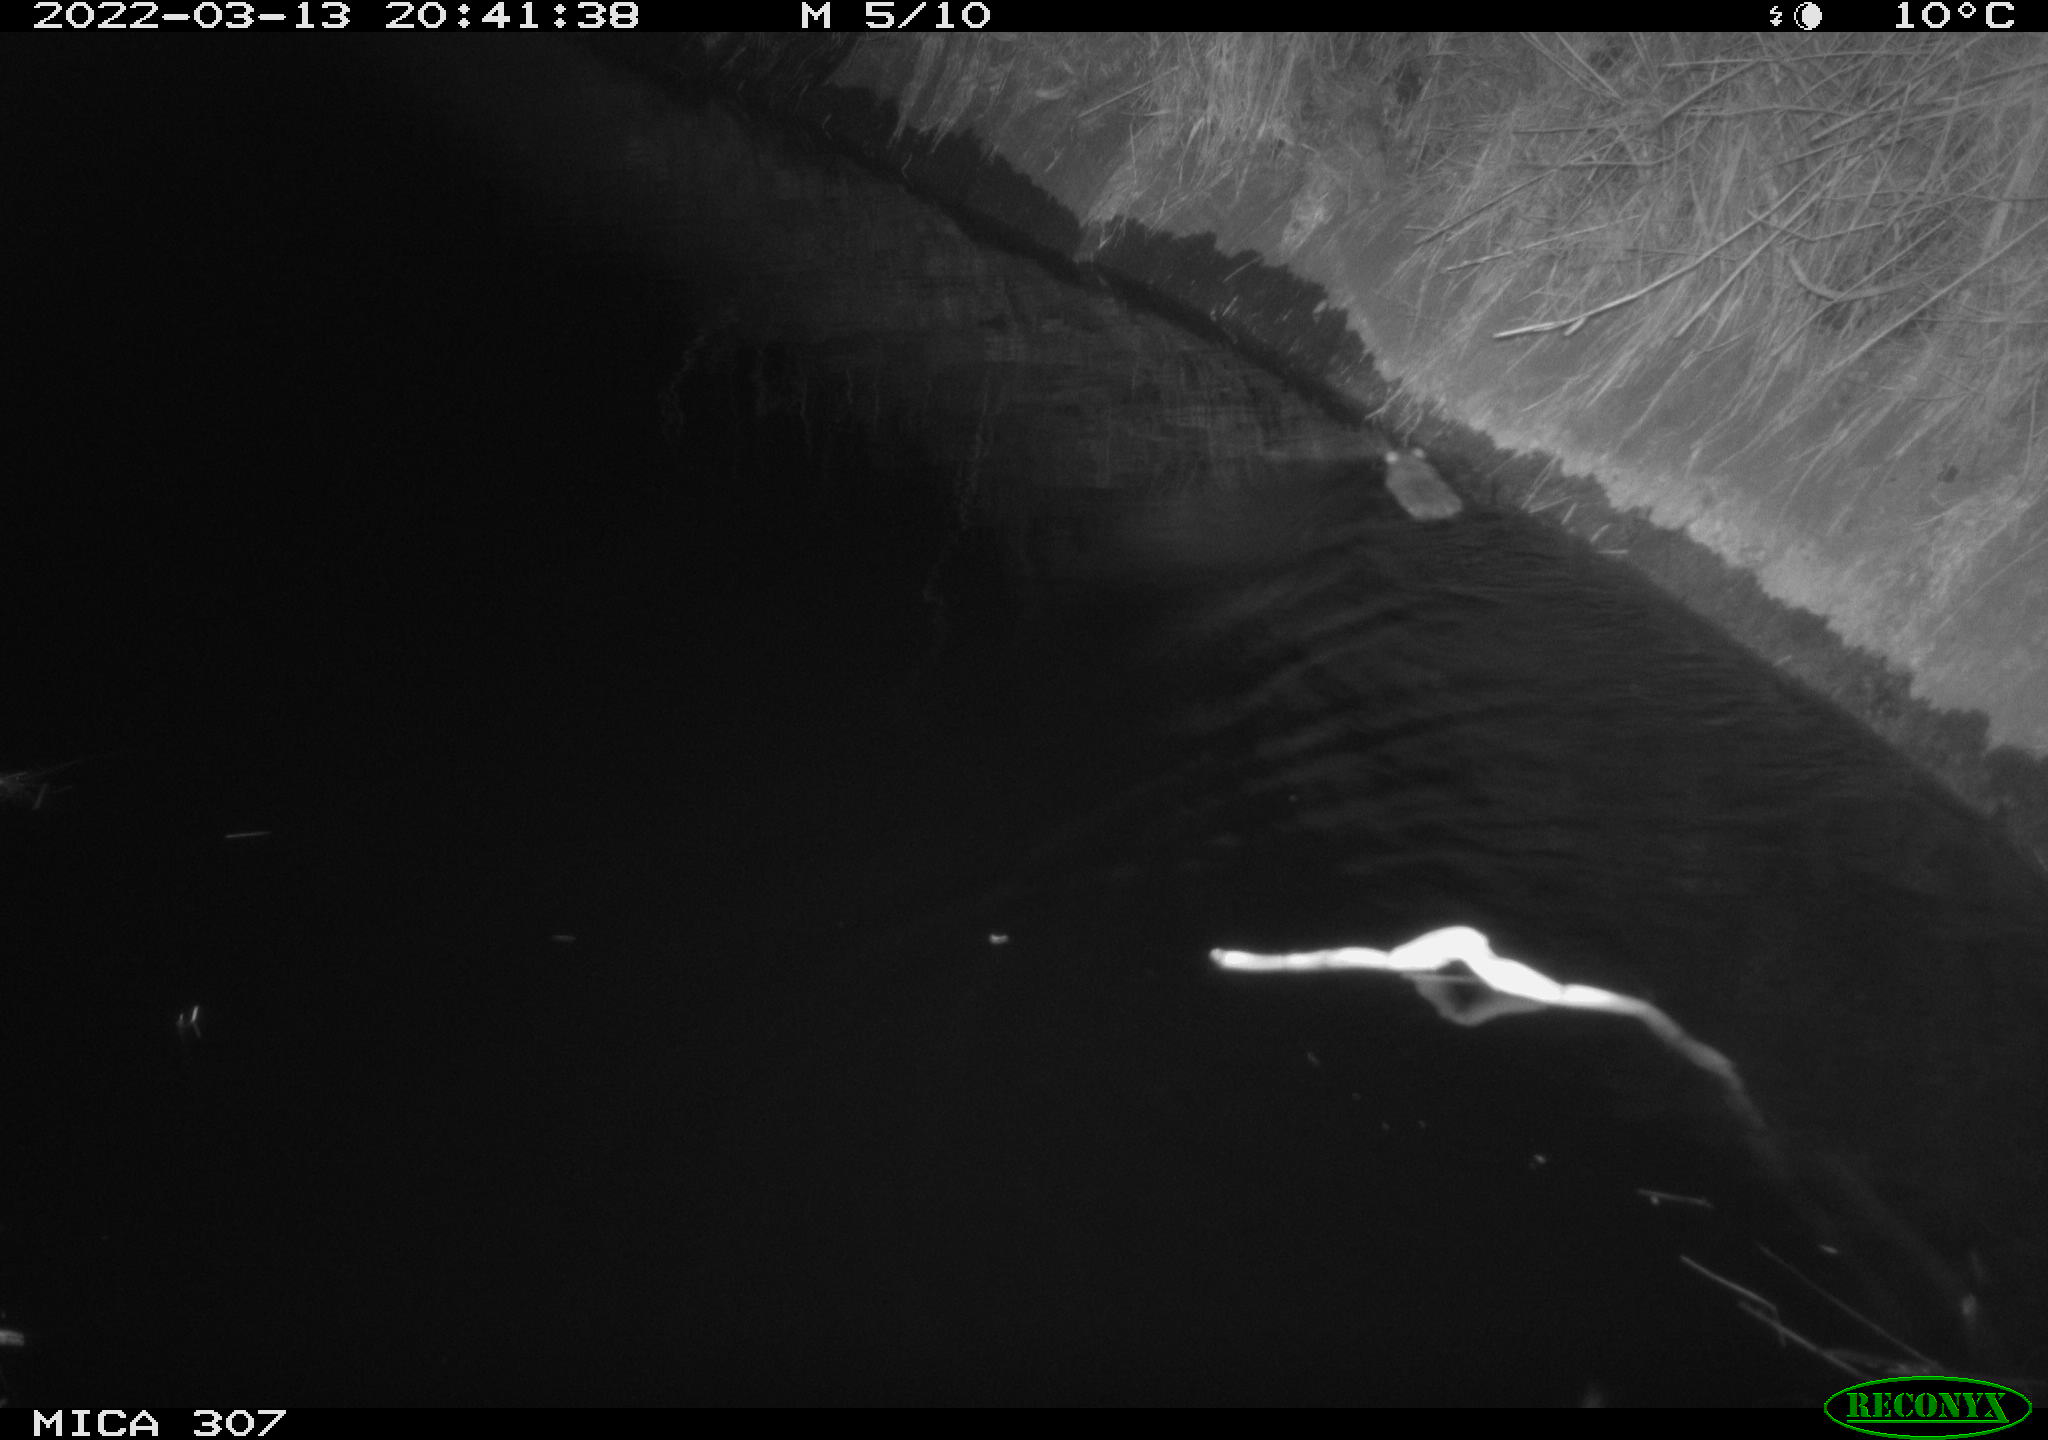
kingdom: Animalia
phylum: Chordata
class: Mammalia
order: Rodentia
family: Muridae
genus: Rattus
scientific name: Rattus norvegicus
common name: Brown rat
